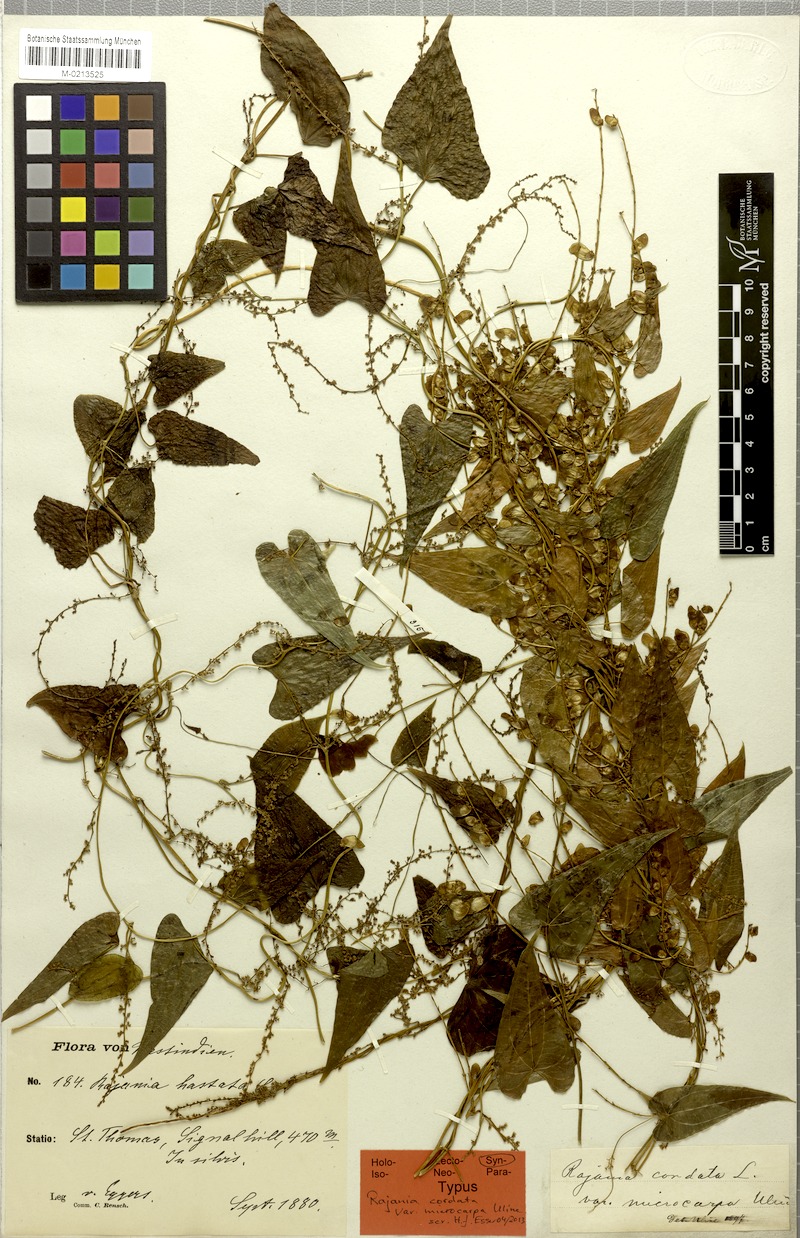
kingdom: Plantae
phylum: Tracheophyta
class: Liliopsida
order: Dioscoreales
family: Dioscoreaceae
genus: Dioscorea
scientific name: Dioscorea cordata
